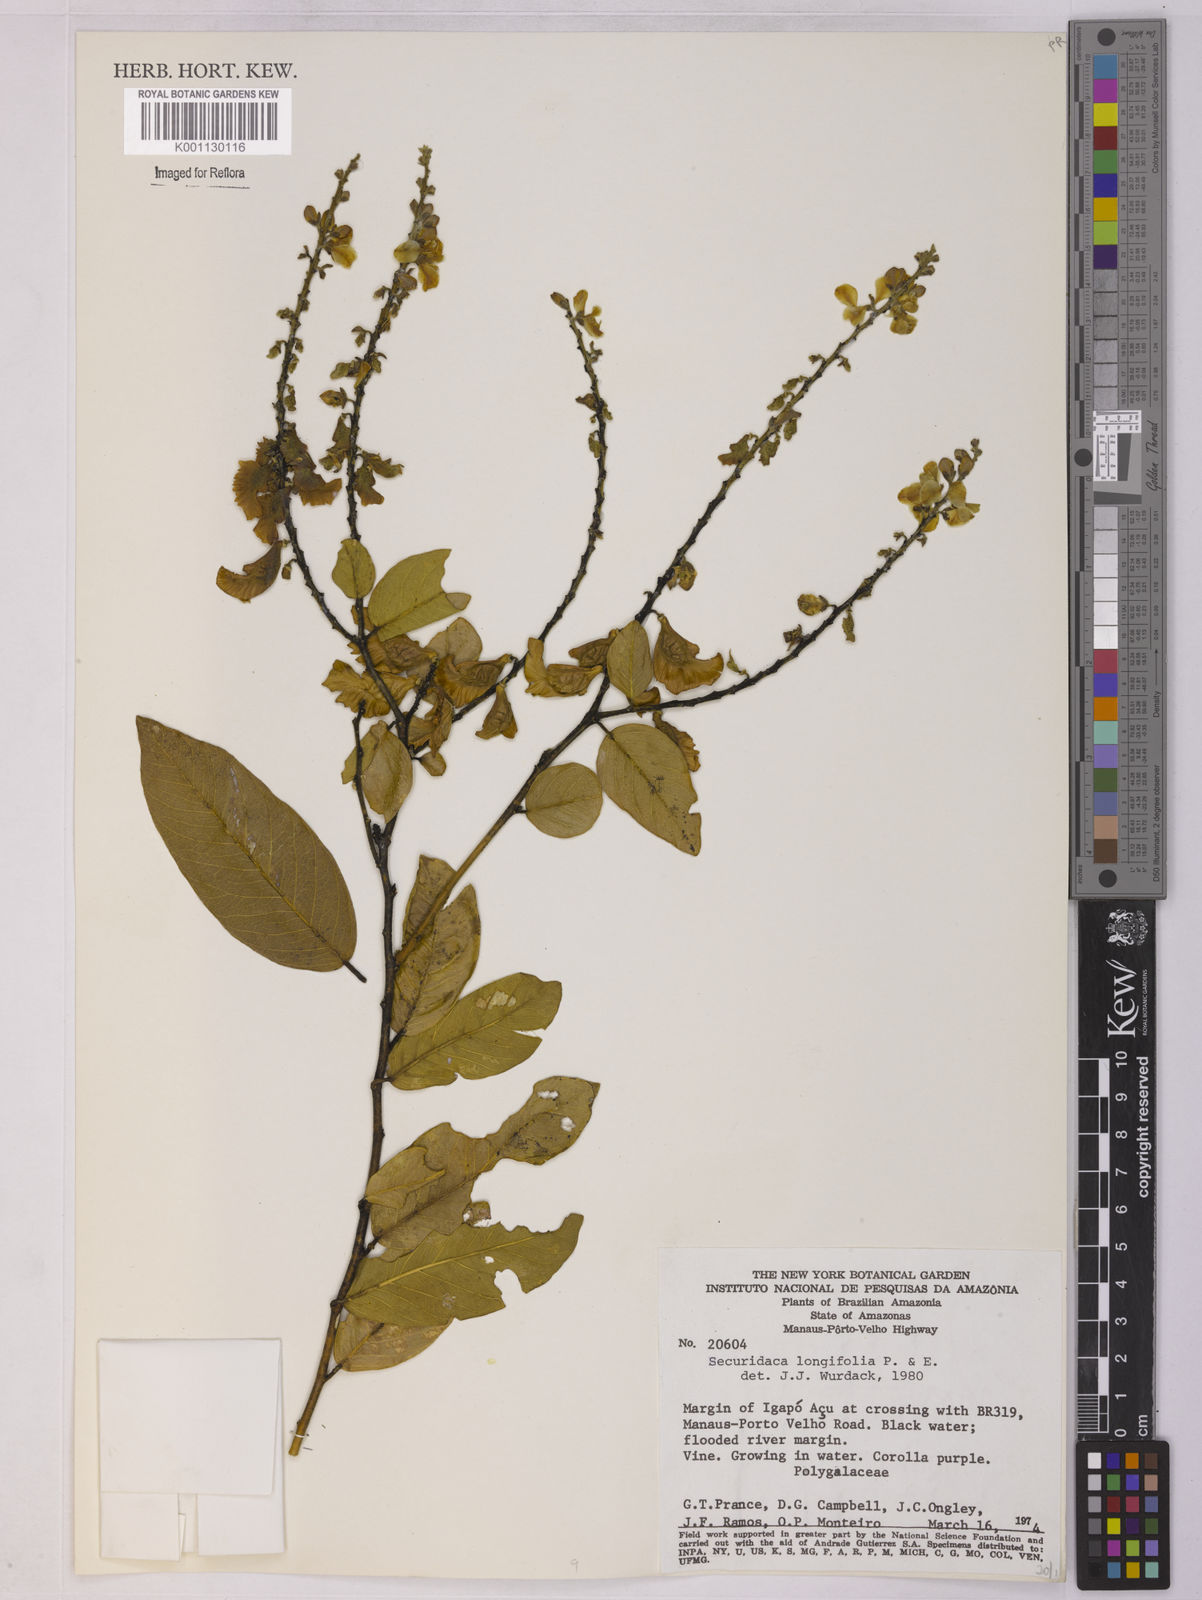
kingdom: Plantae
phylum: Tracheophyta
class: Magnoliopsida
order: Fabales
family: Polygalaceae
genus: Securidaca
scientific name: Securidaca longifolia
